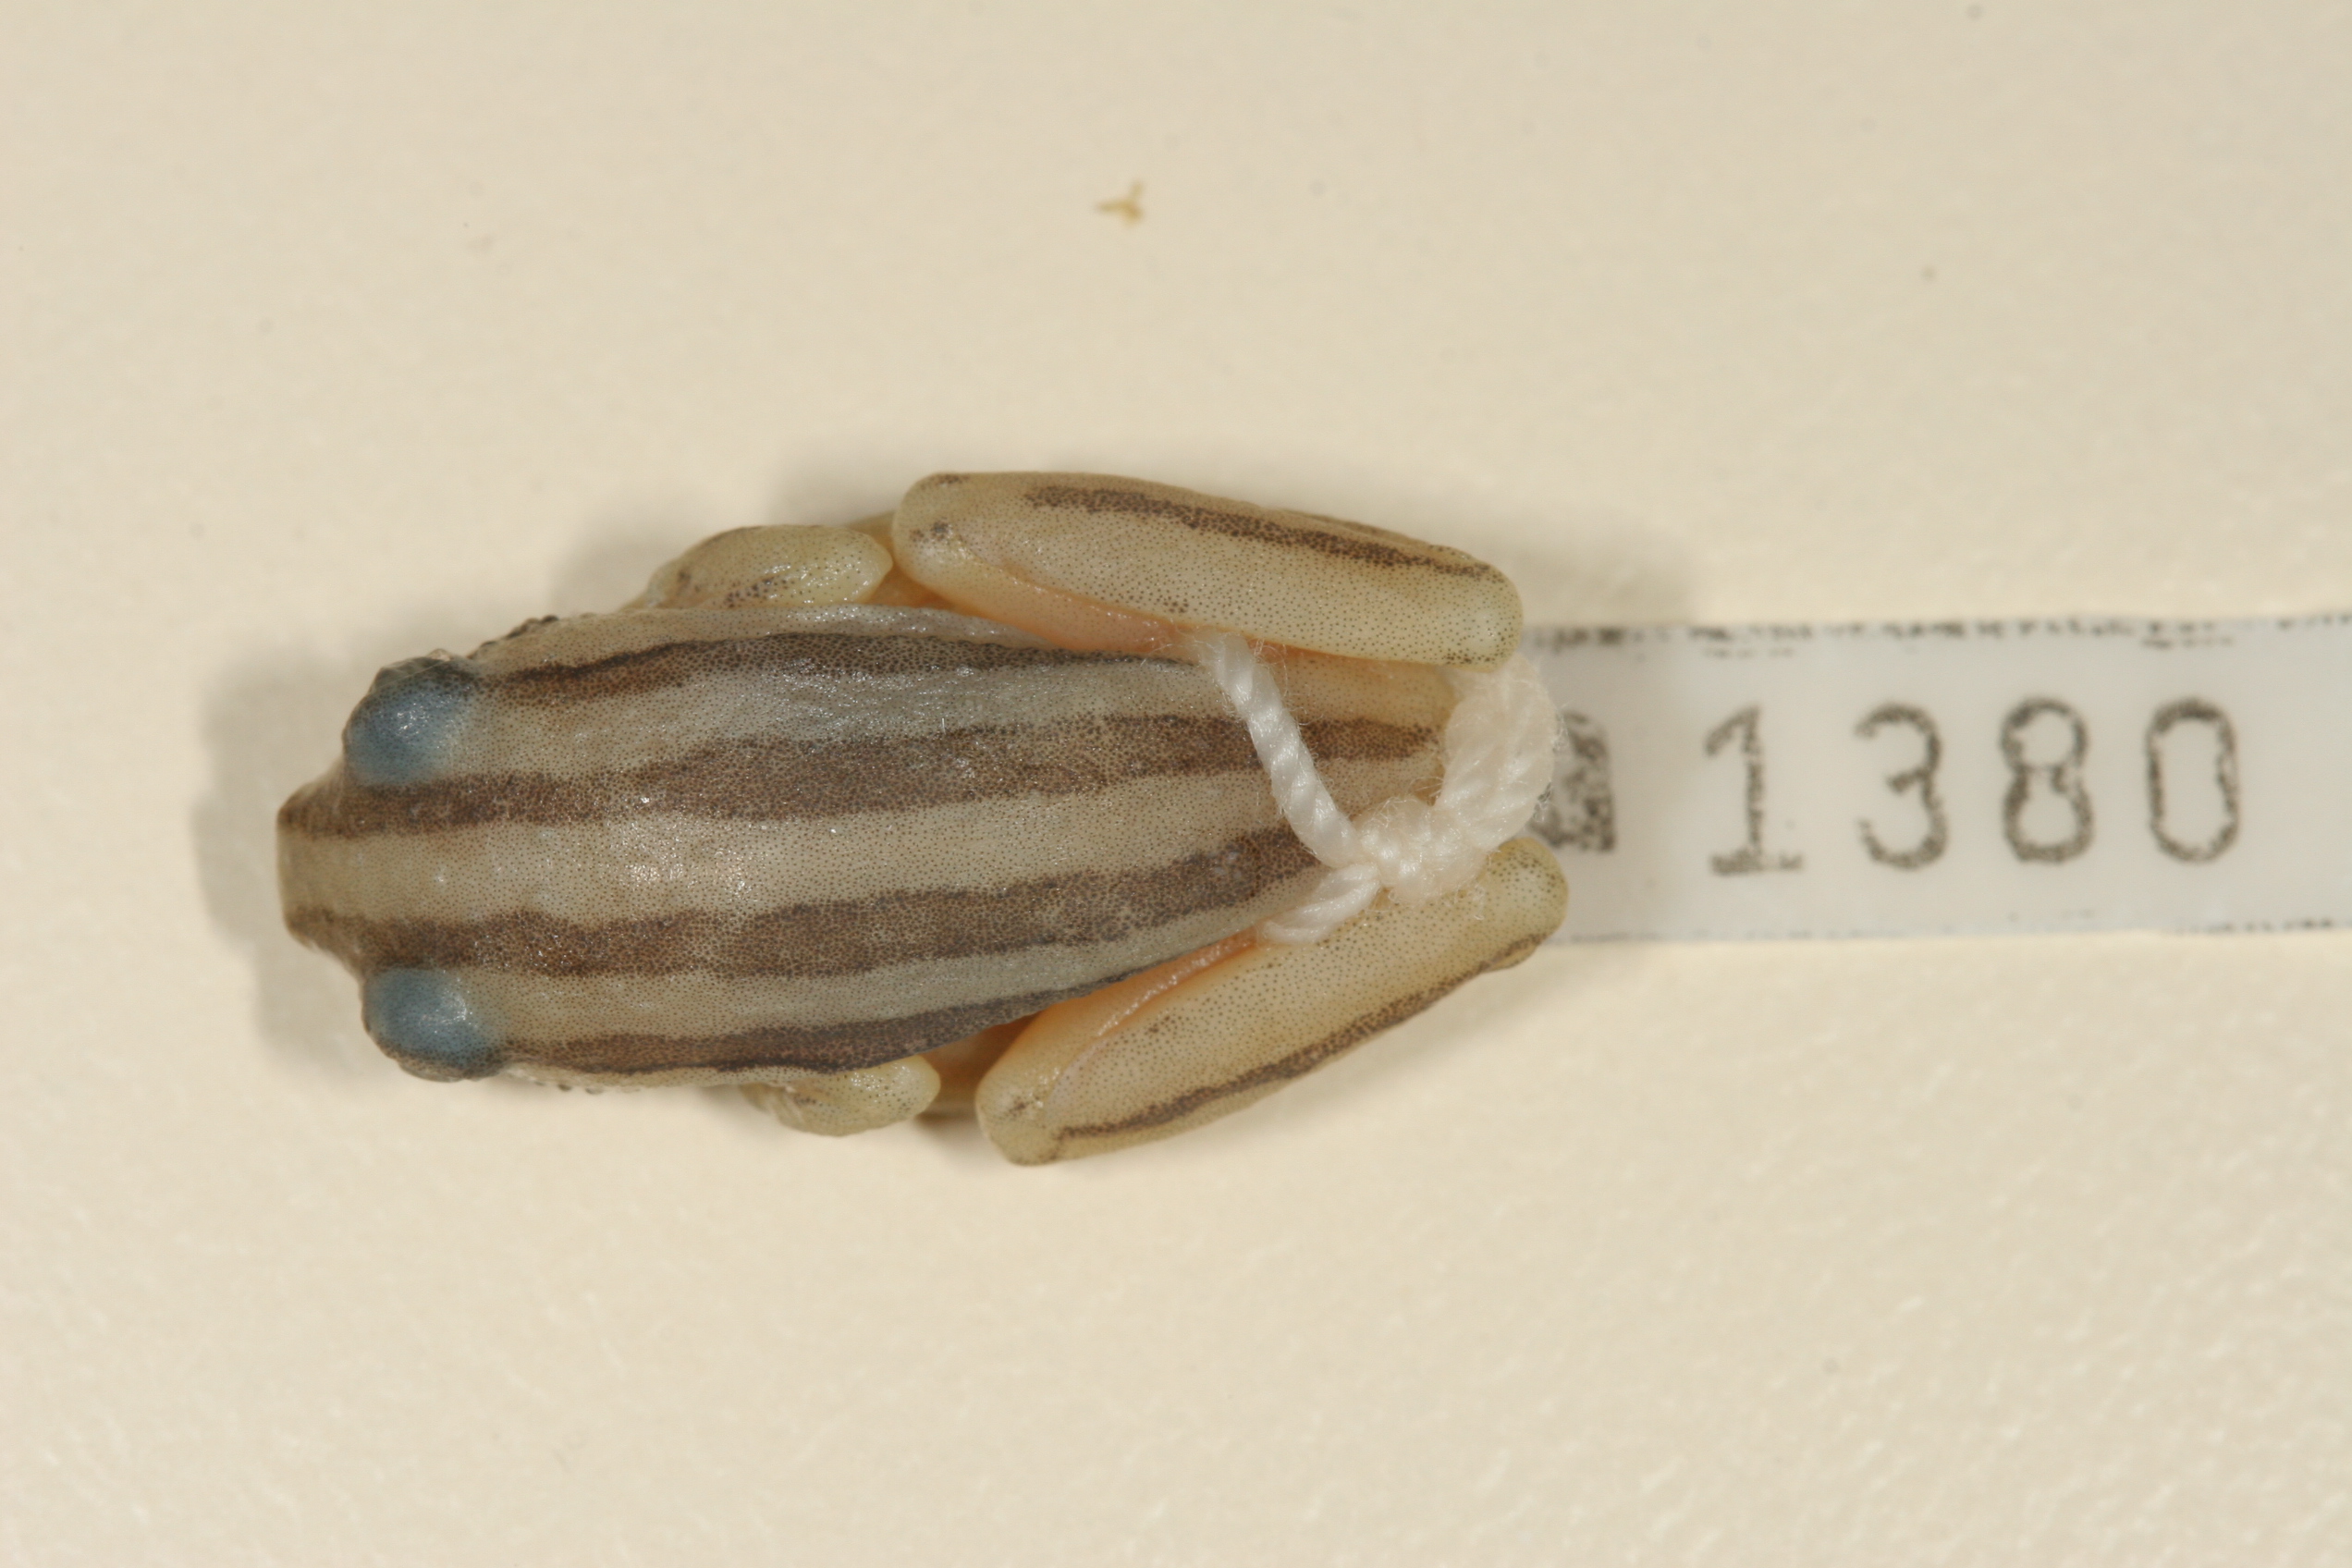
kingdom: Animalia
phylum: Chordata
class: Amphibia
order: Anura
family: Hyperoliidae
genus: Hyperolius
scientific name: Hyperolius marmoratus
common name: Painted reed frog
